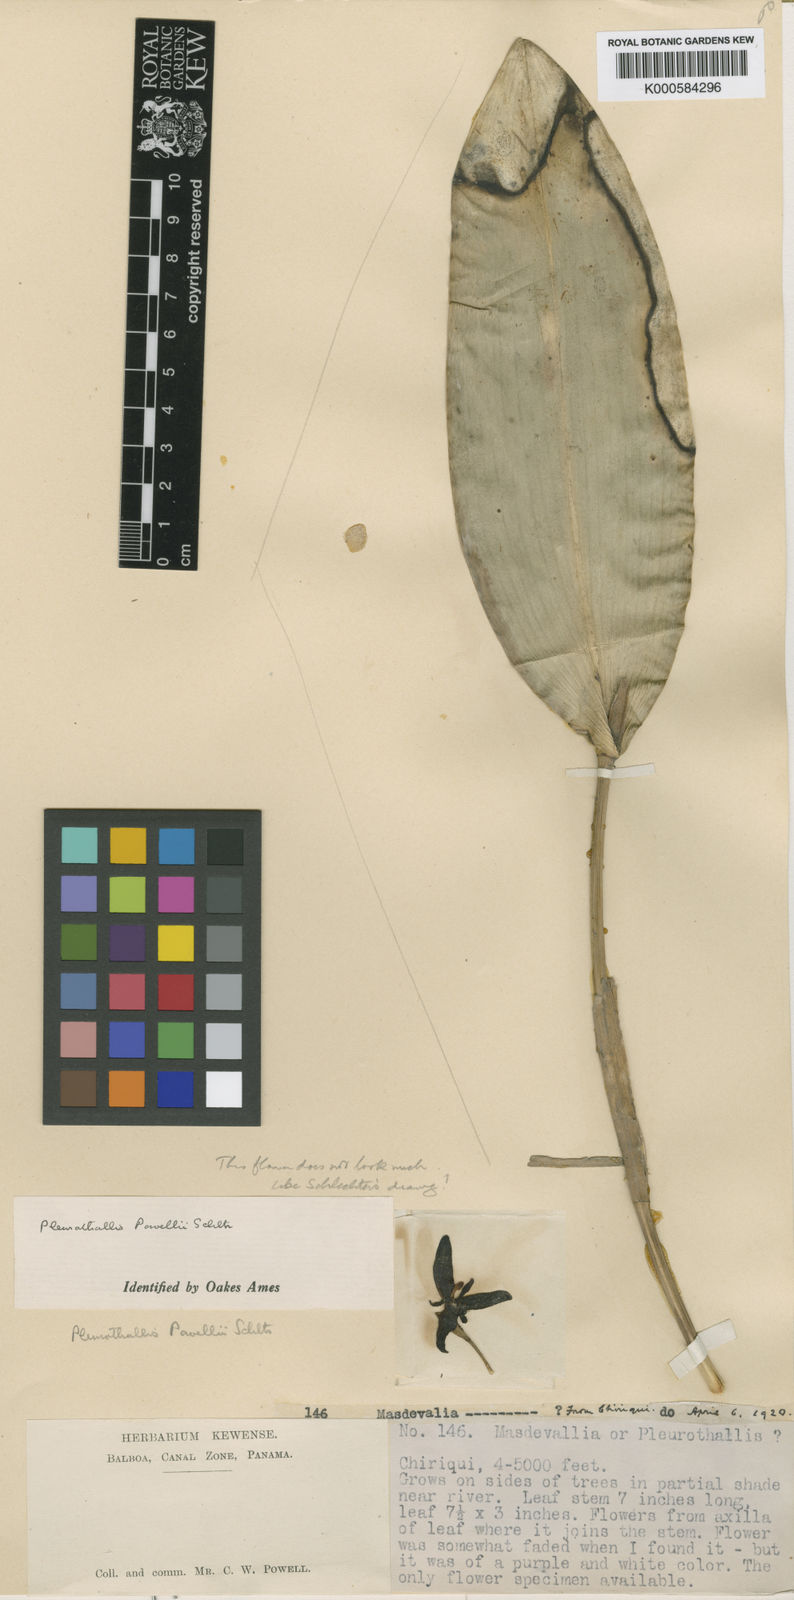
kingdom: Plantae
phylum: Tracheophyta
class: Liliopsida
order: Asparagales
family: Orchidaceae
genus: Stelis
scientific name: Stelis gigantea
